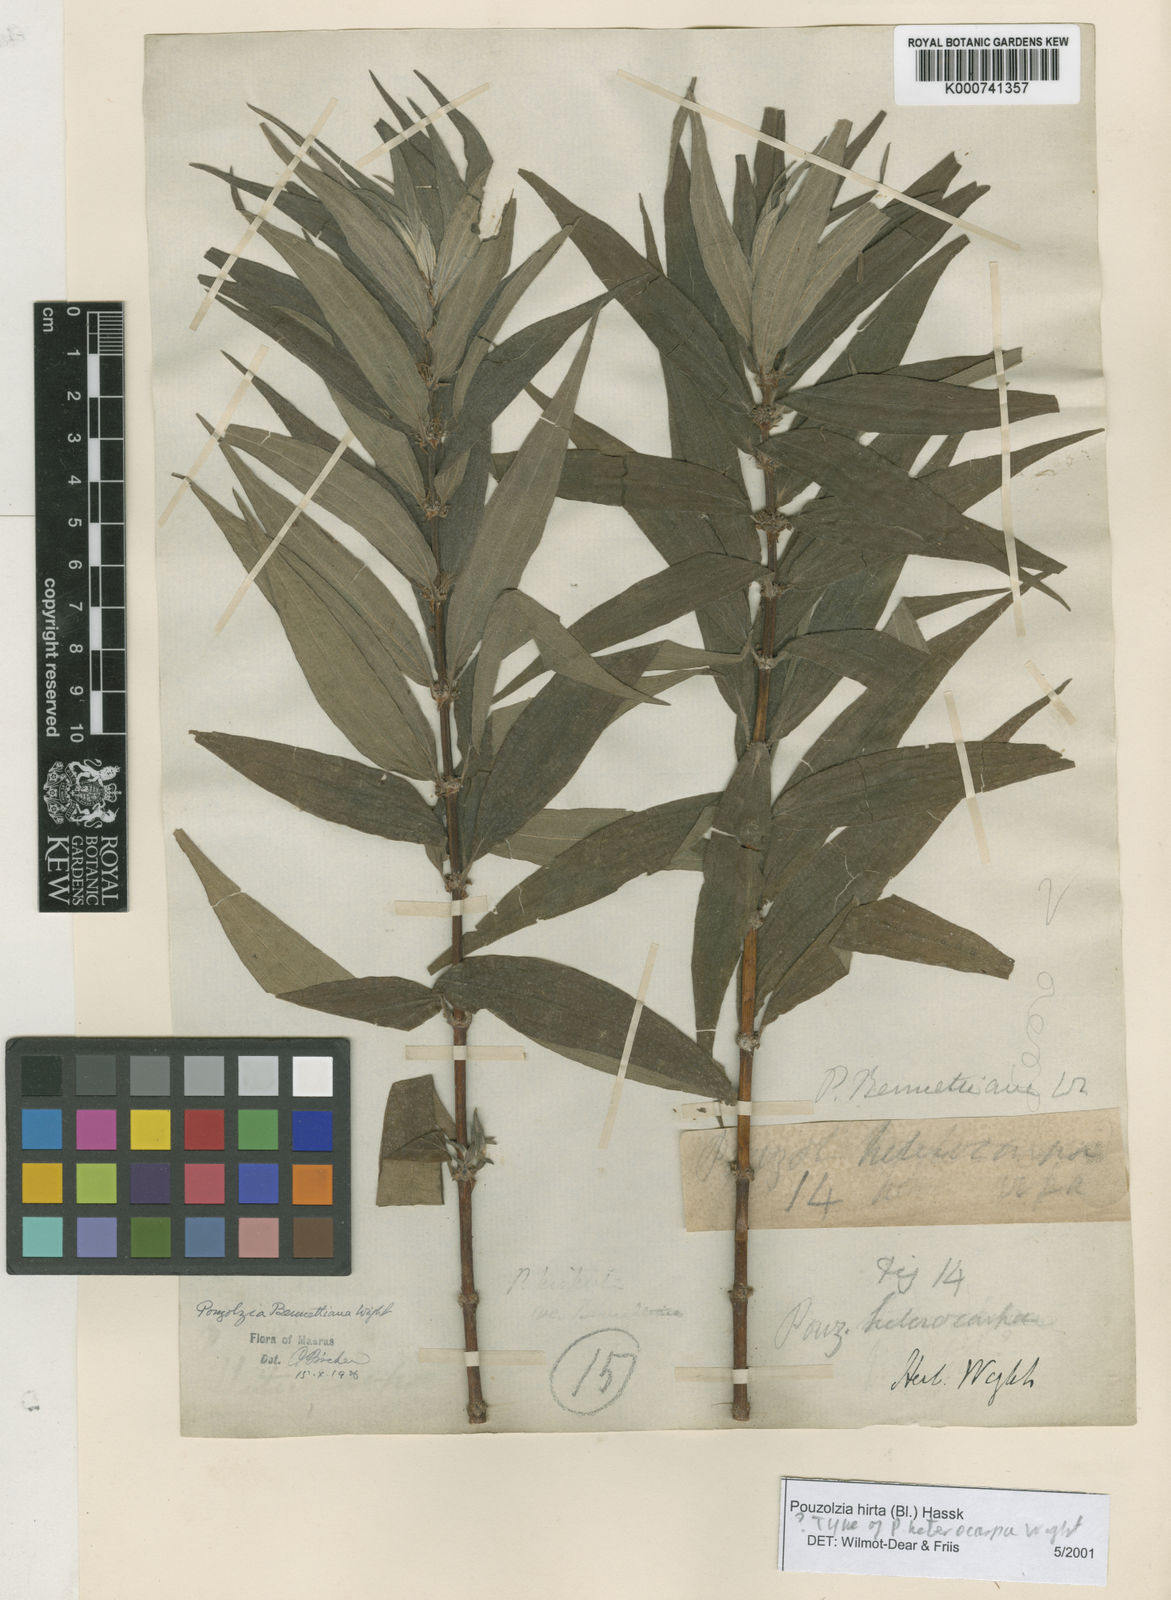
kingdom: Plantae
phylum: Tracheophyta
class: Magnoliopsida
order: Rosales
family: Urticaceae
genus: Gonostegia
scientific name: Gonostegia triandra
